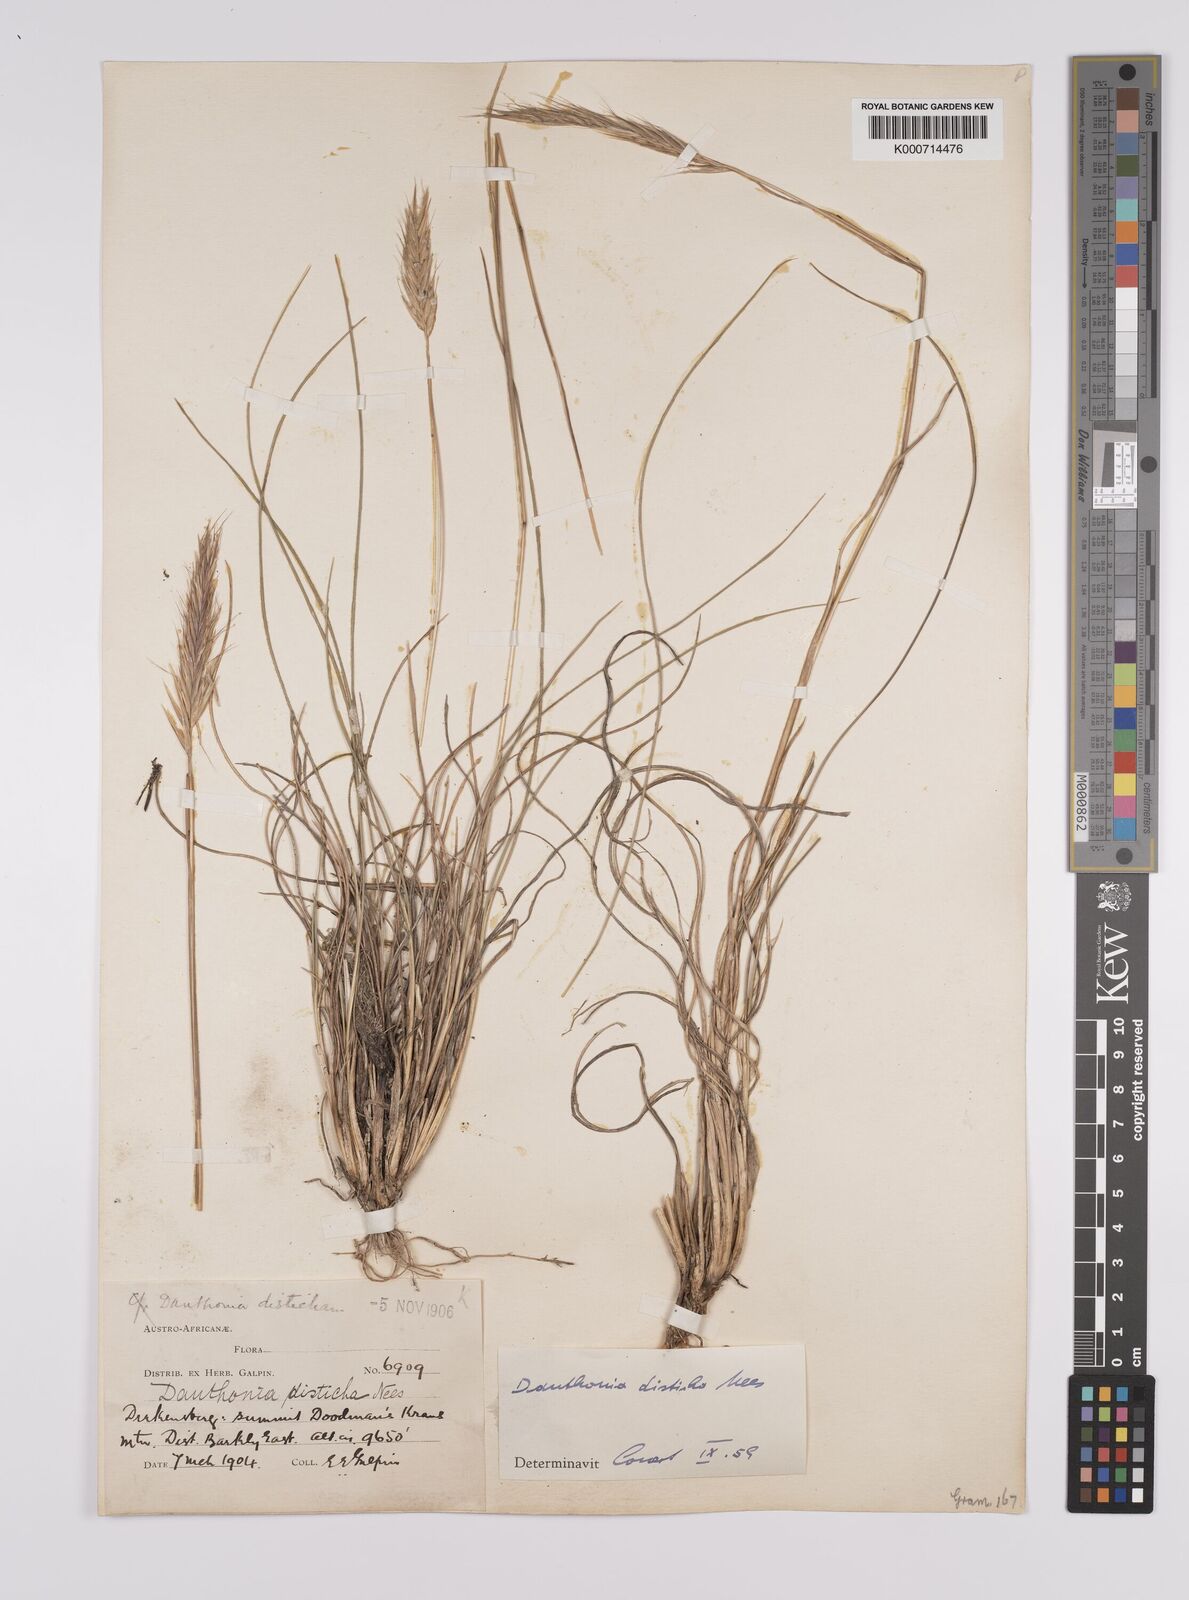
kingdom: Plantae
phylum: Tracheophyta
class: Liliopsida
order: Poales
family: Poaceae
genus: Tenaxia
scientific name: Tenaxia disticha
